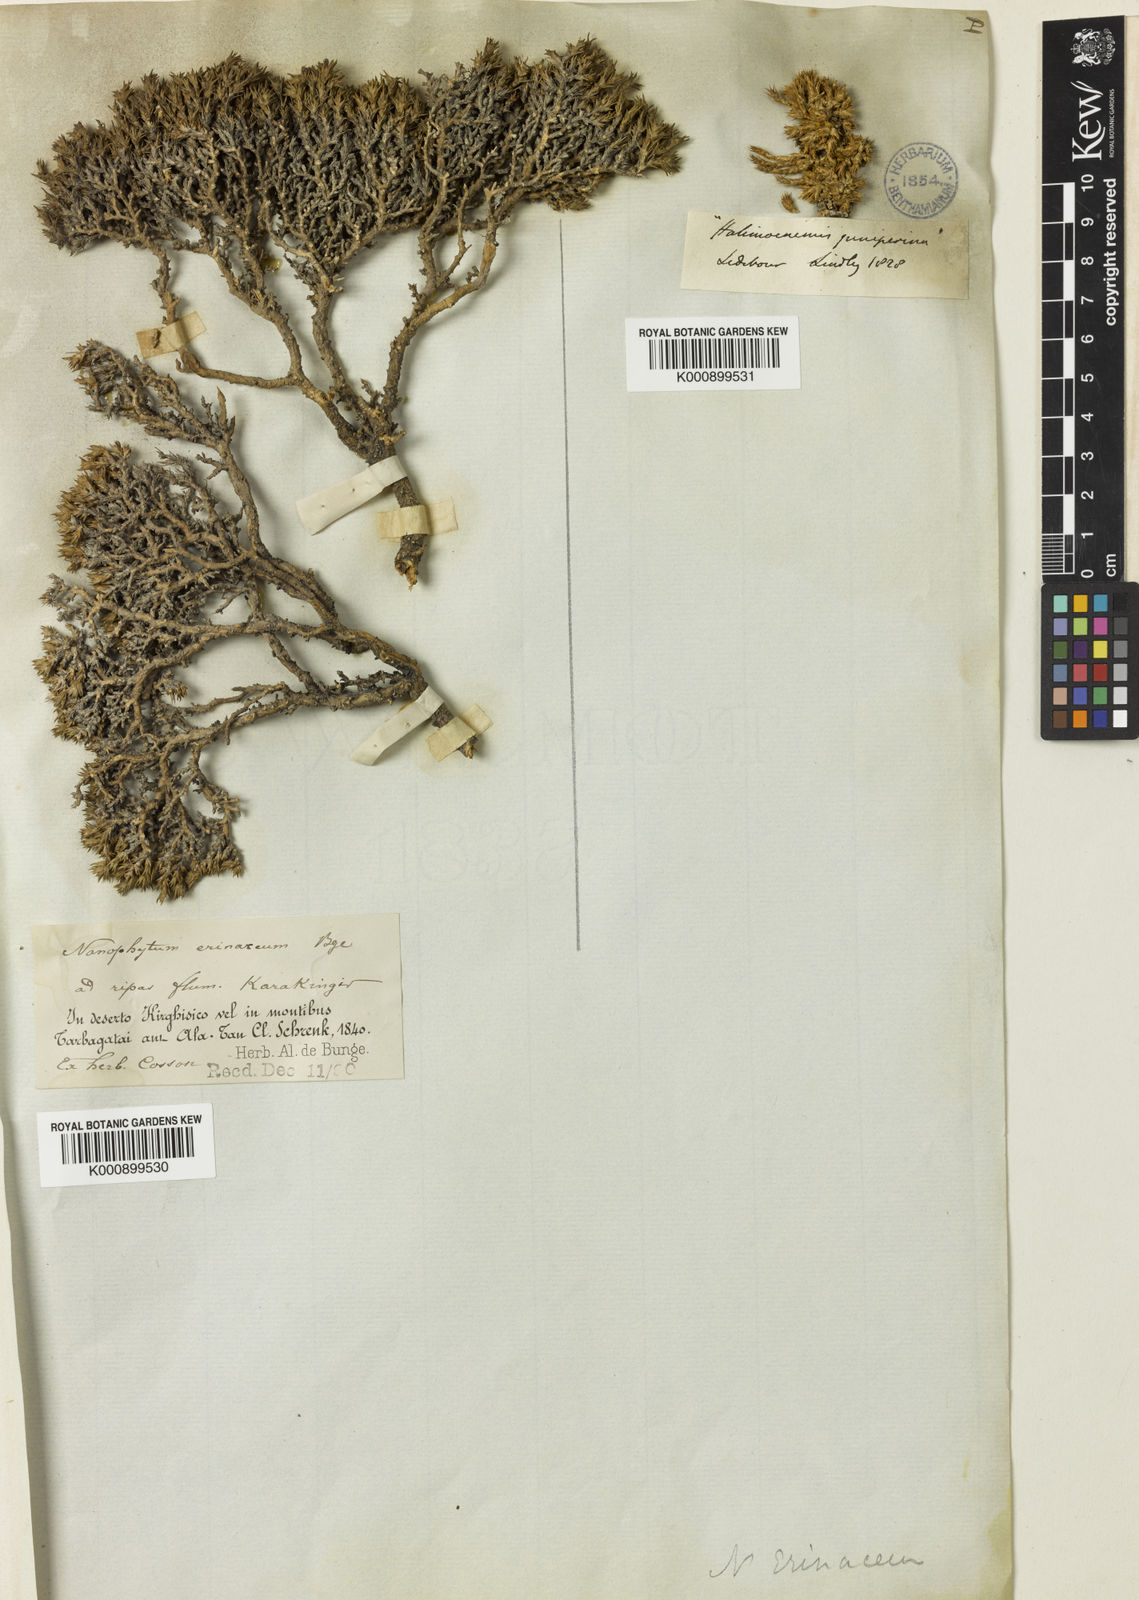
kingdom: Plantae
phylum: Tracheophyta
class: Magnoliopsida
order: Caryophyllales
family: Amaranthaceae
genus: Nanophyton
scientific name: Nanophyton erinaceum
